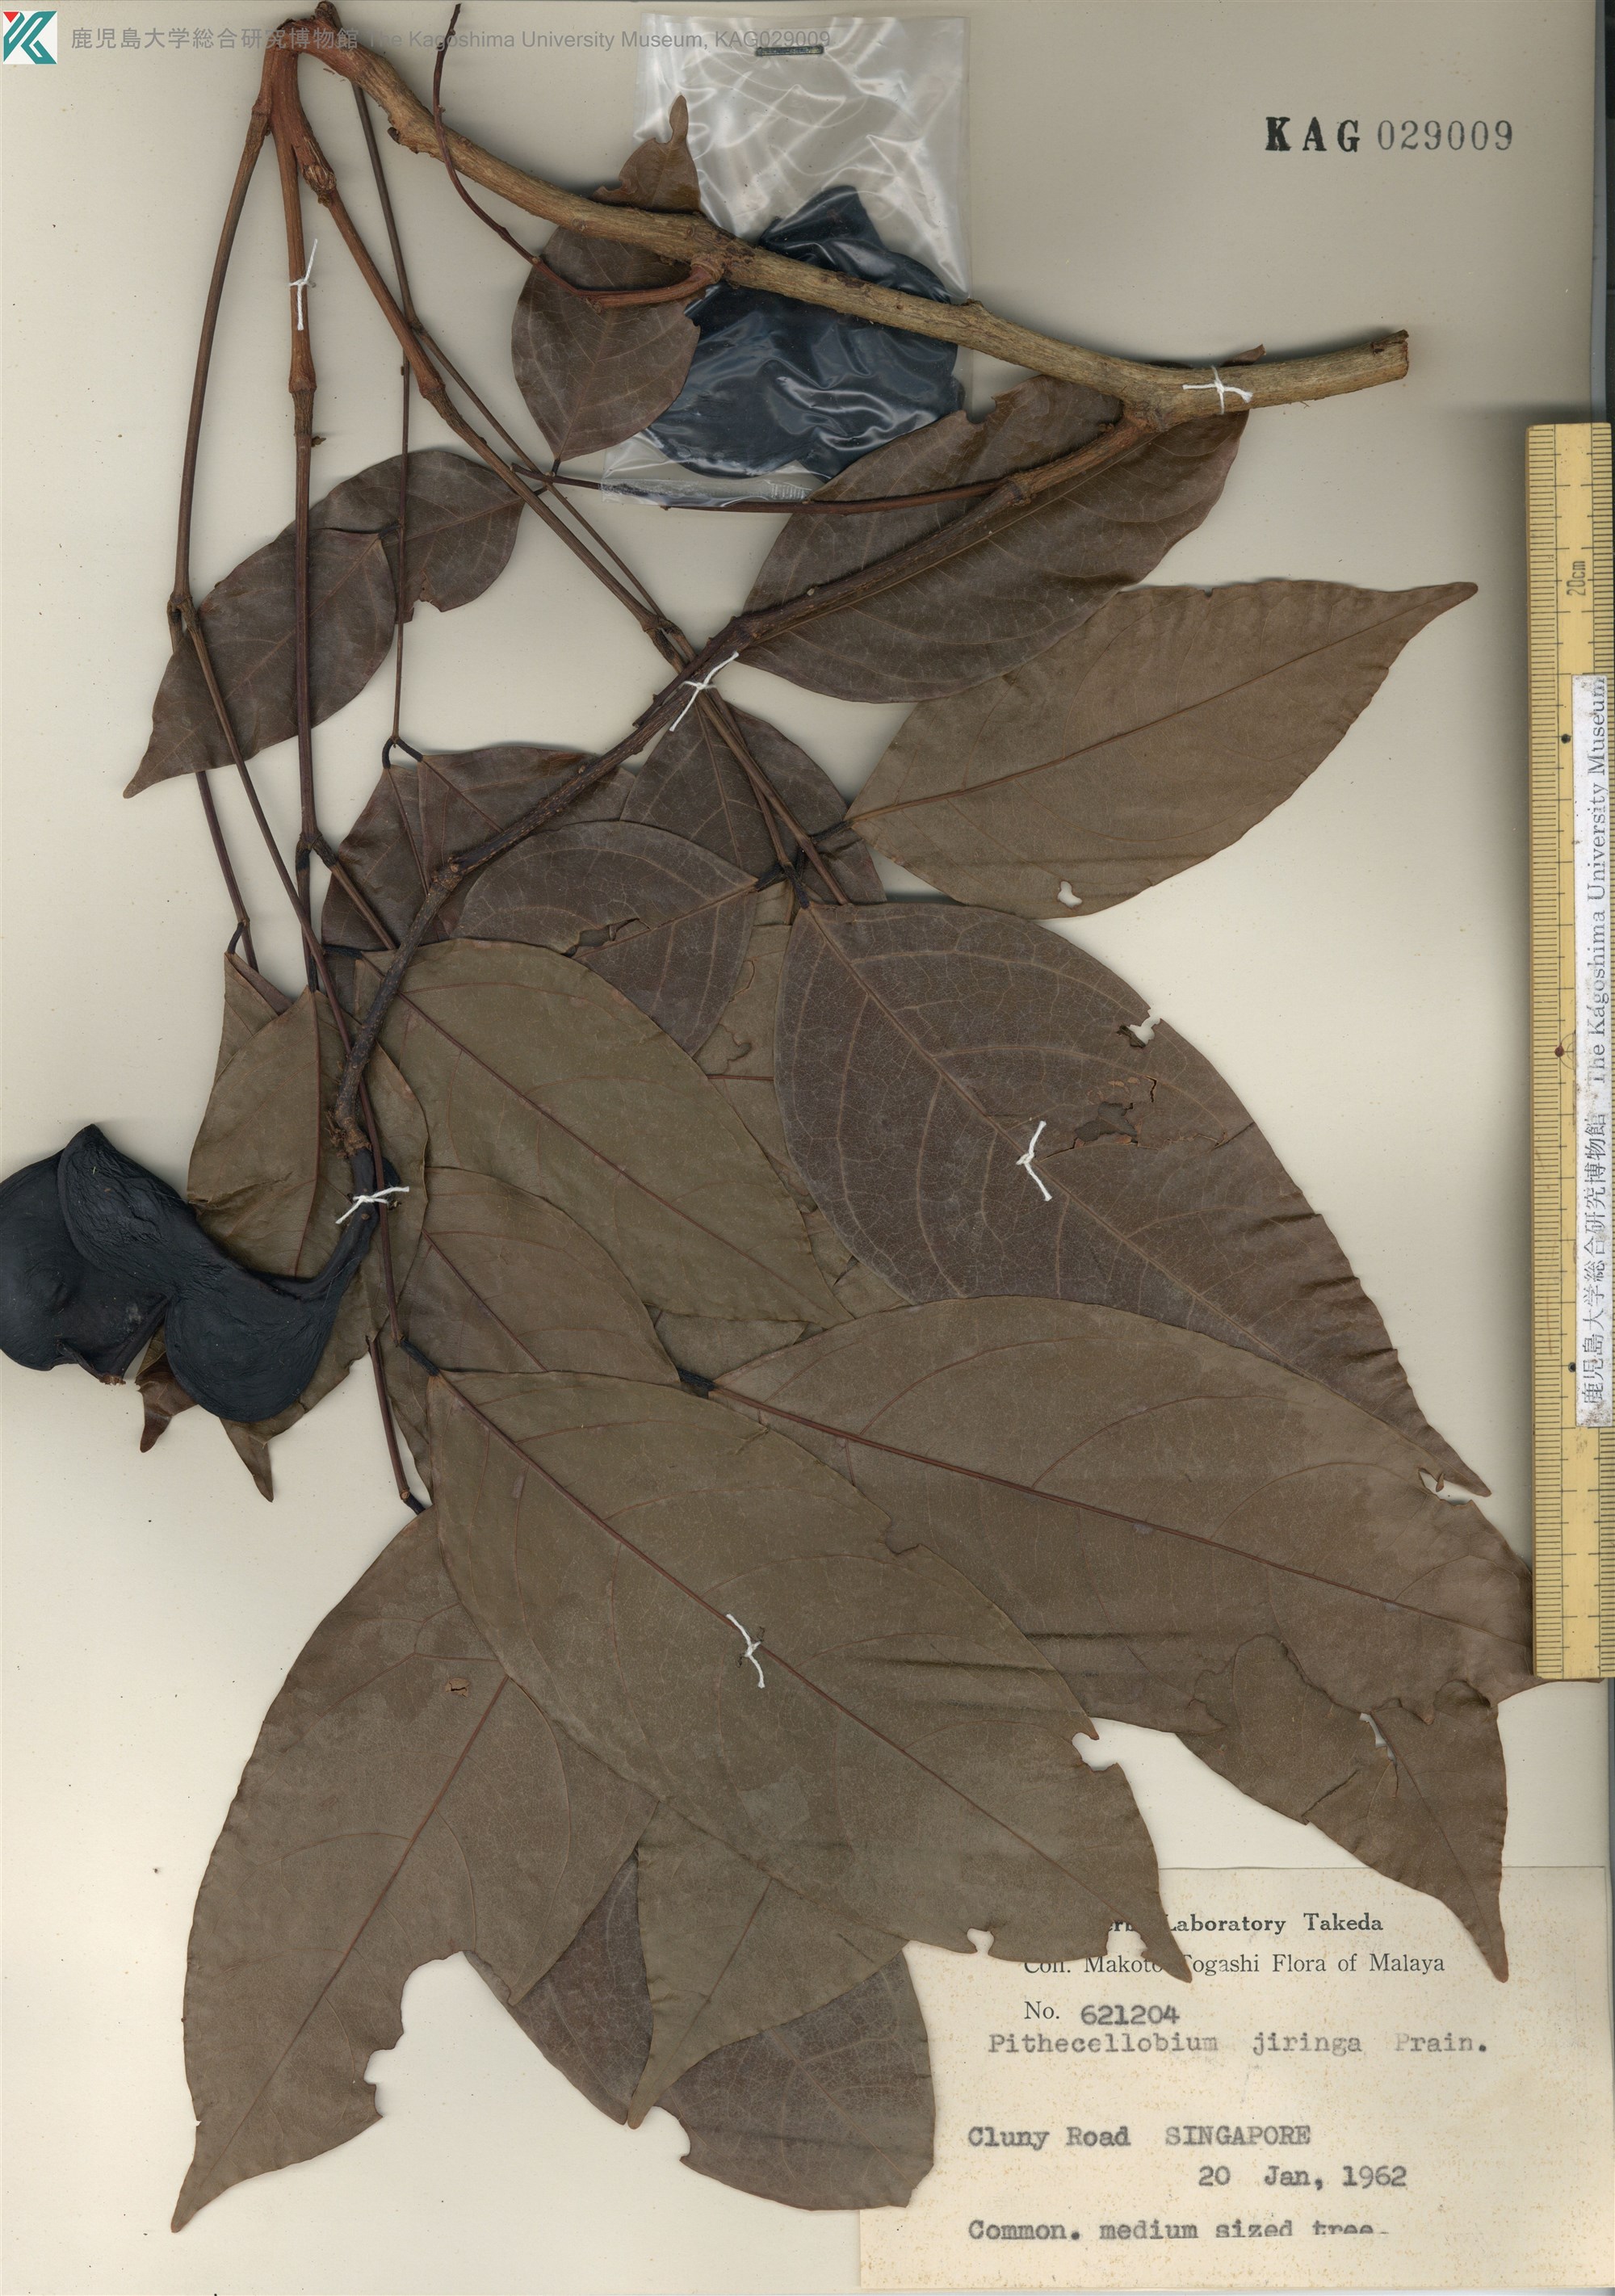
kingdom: Plantae
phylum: Tracheophyta
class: Magnoliopsida
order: Fabales
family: Fabaceae
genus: Archidendron
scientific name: Archidendron jiringa
